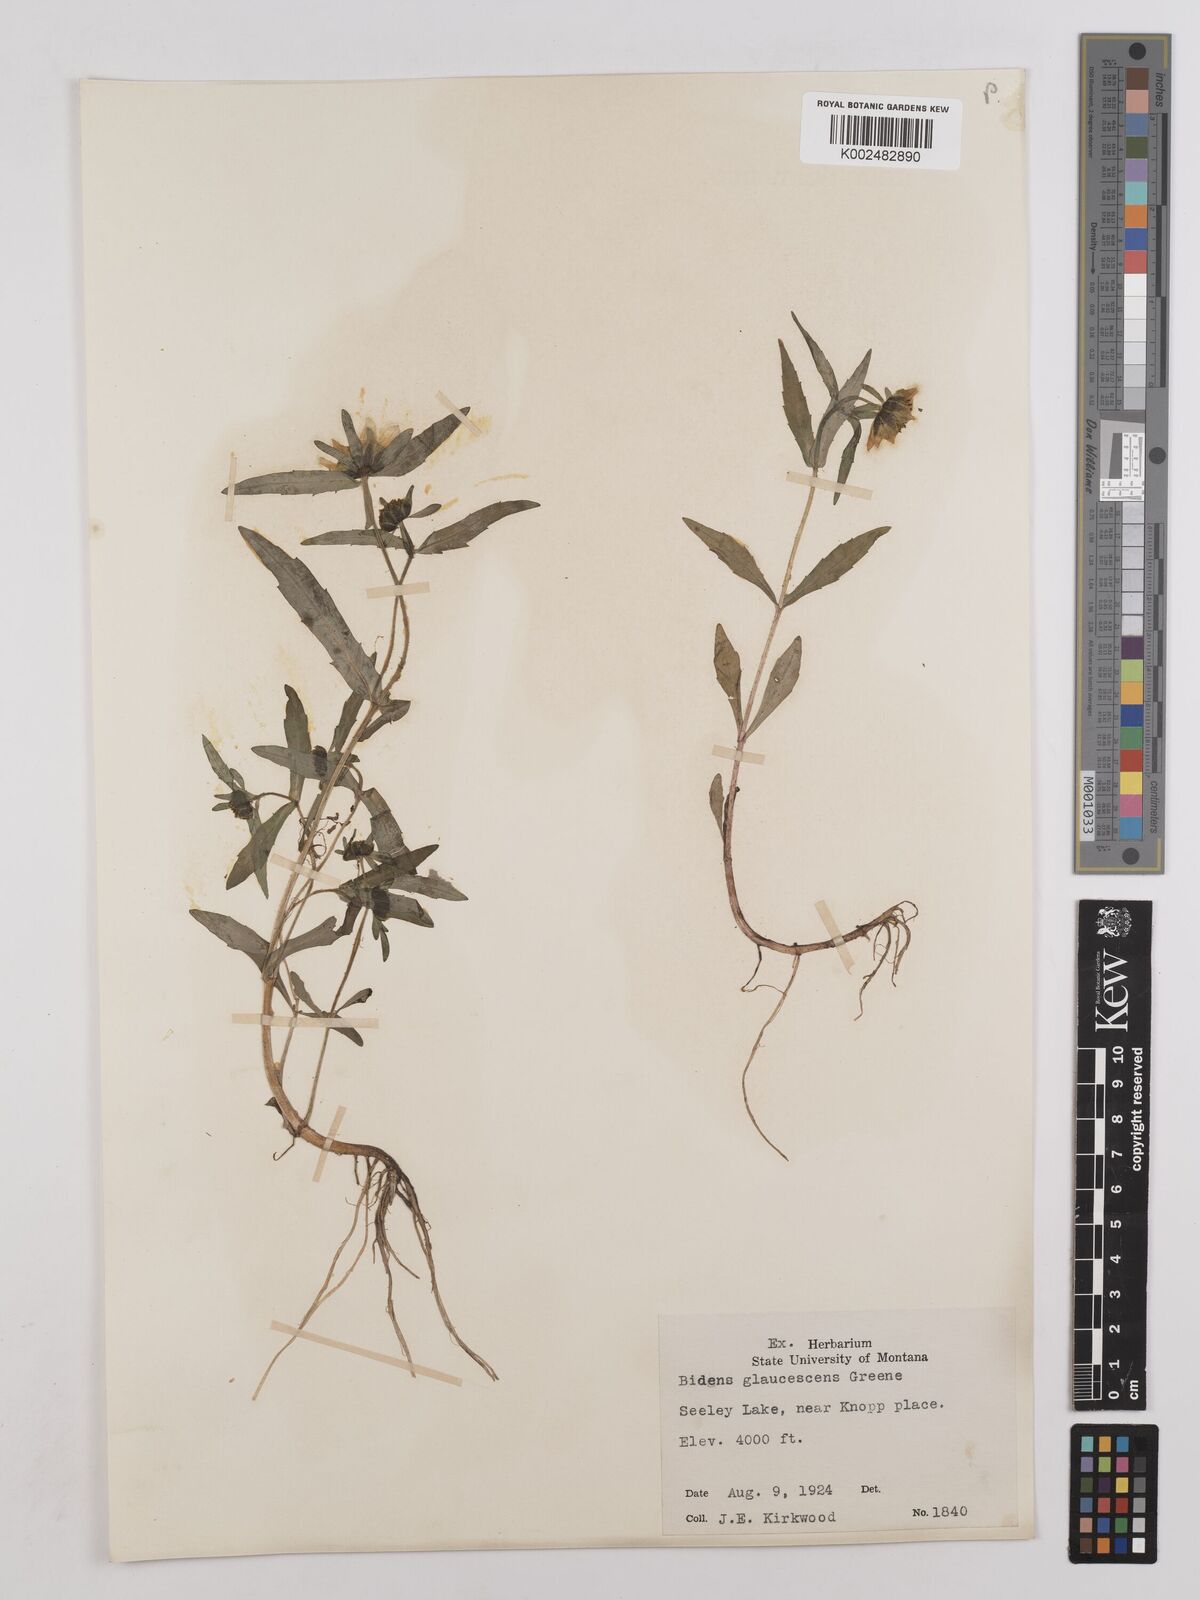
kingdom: Plantae
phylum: Tracheophyta
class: Magnoliopsida
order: Asterales
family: Asteraceae
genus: Bidens
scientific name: Bidens cernua
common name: Nodding bur-marigold
